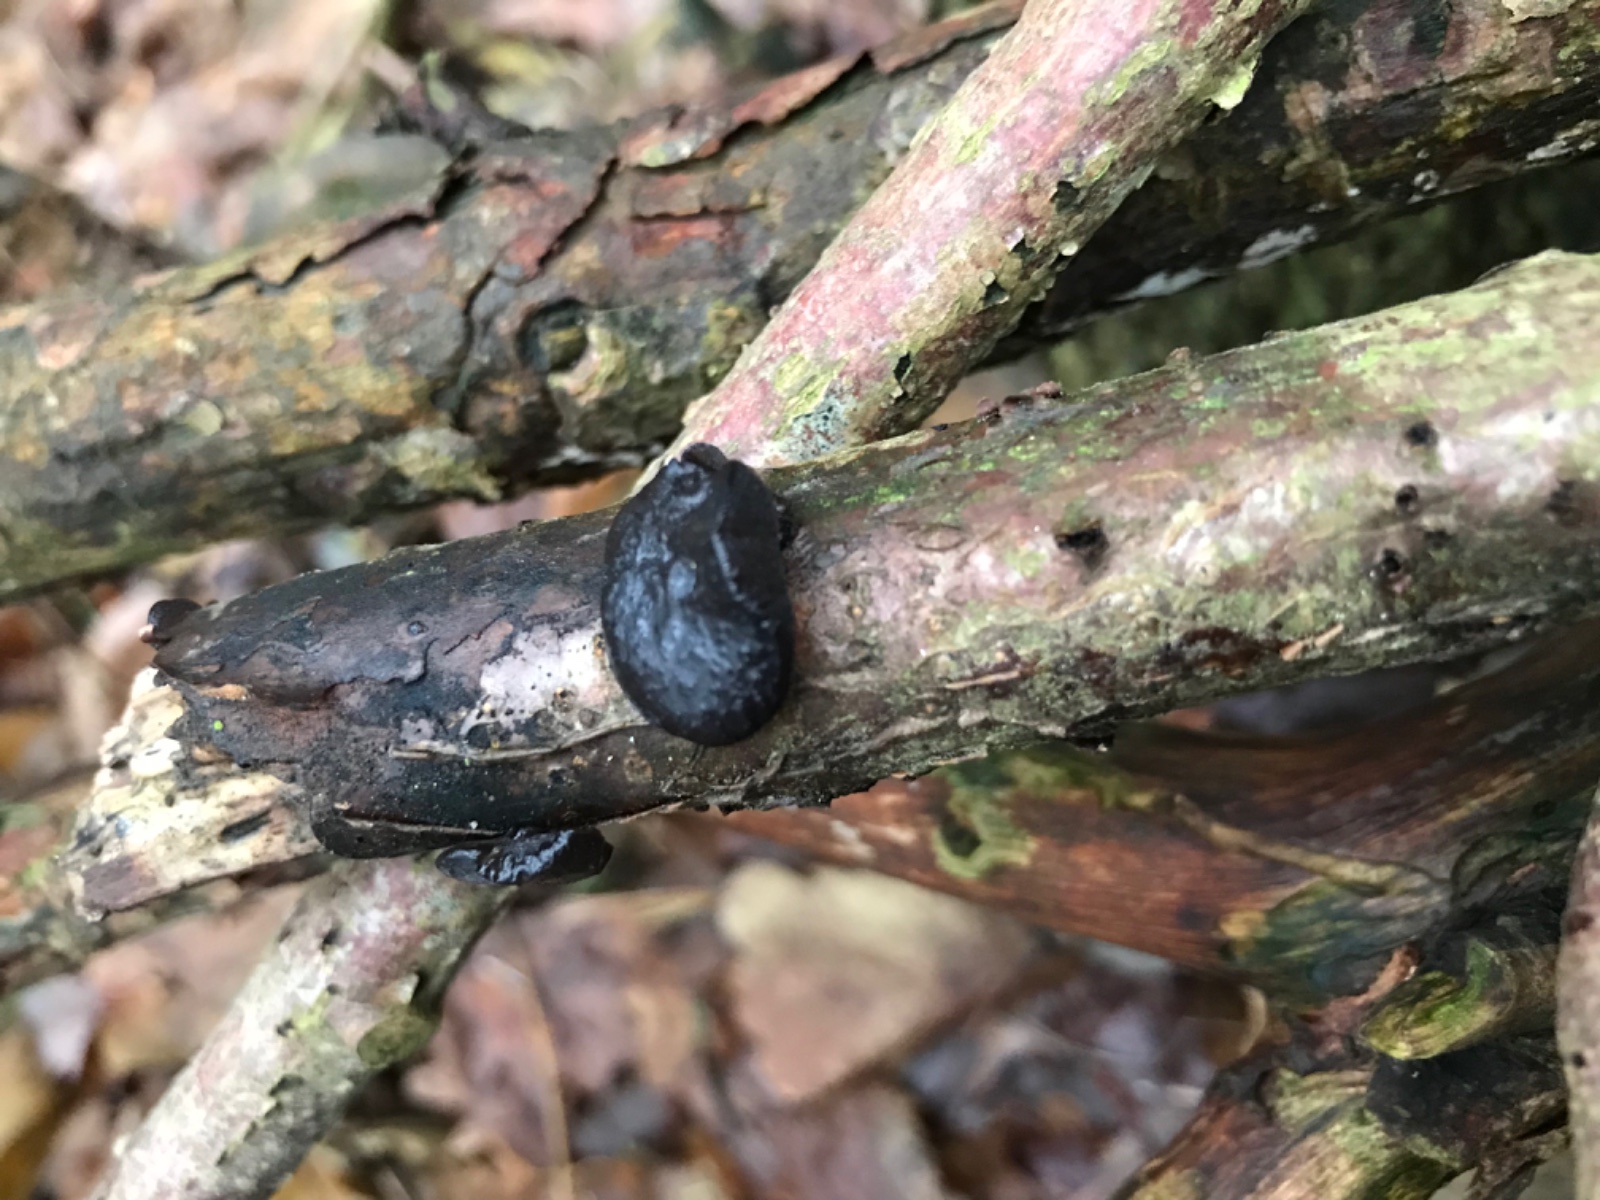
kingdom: Fungi
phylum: Basidiomycota
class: Agaricomycetes
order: Auriculariales
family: Auriculariaceae
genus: Exidia
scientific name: Exidia glandulosa
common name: ege-bævretop
